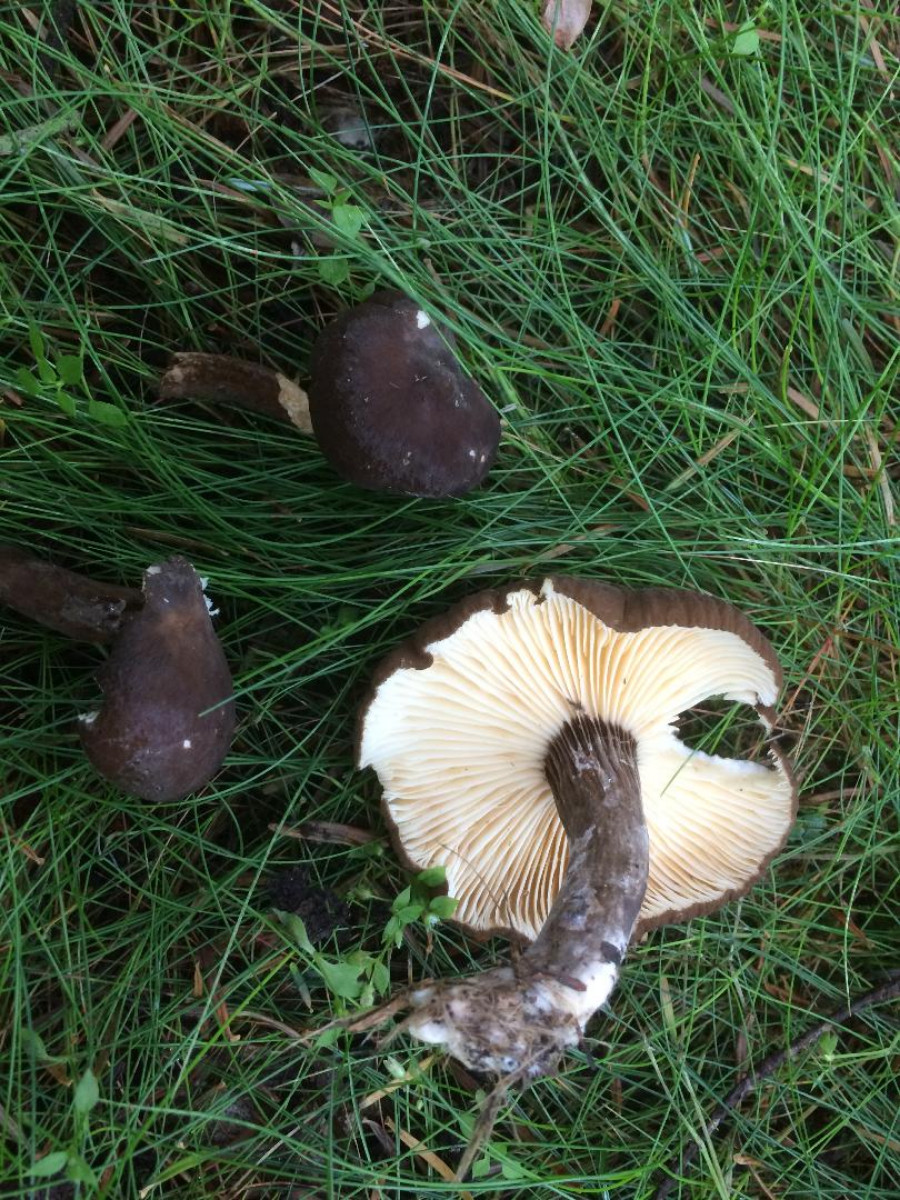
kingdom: Fungi
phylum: Basidiomycota
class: Agaricomycetes
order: Russulales
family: Russulaceae
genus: Lactarius
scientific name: Lactarius lignyotus
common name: fløjls-mælkehat
